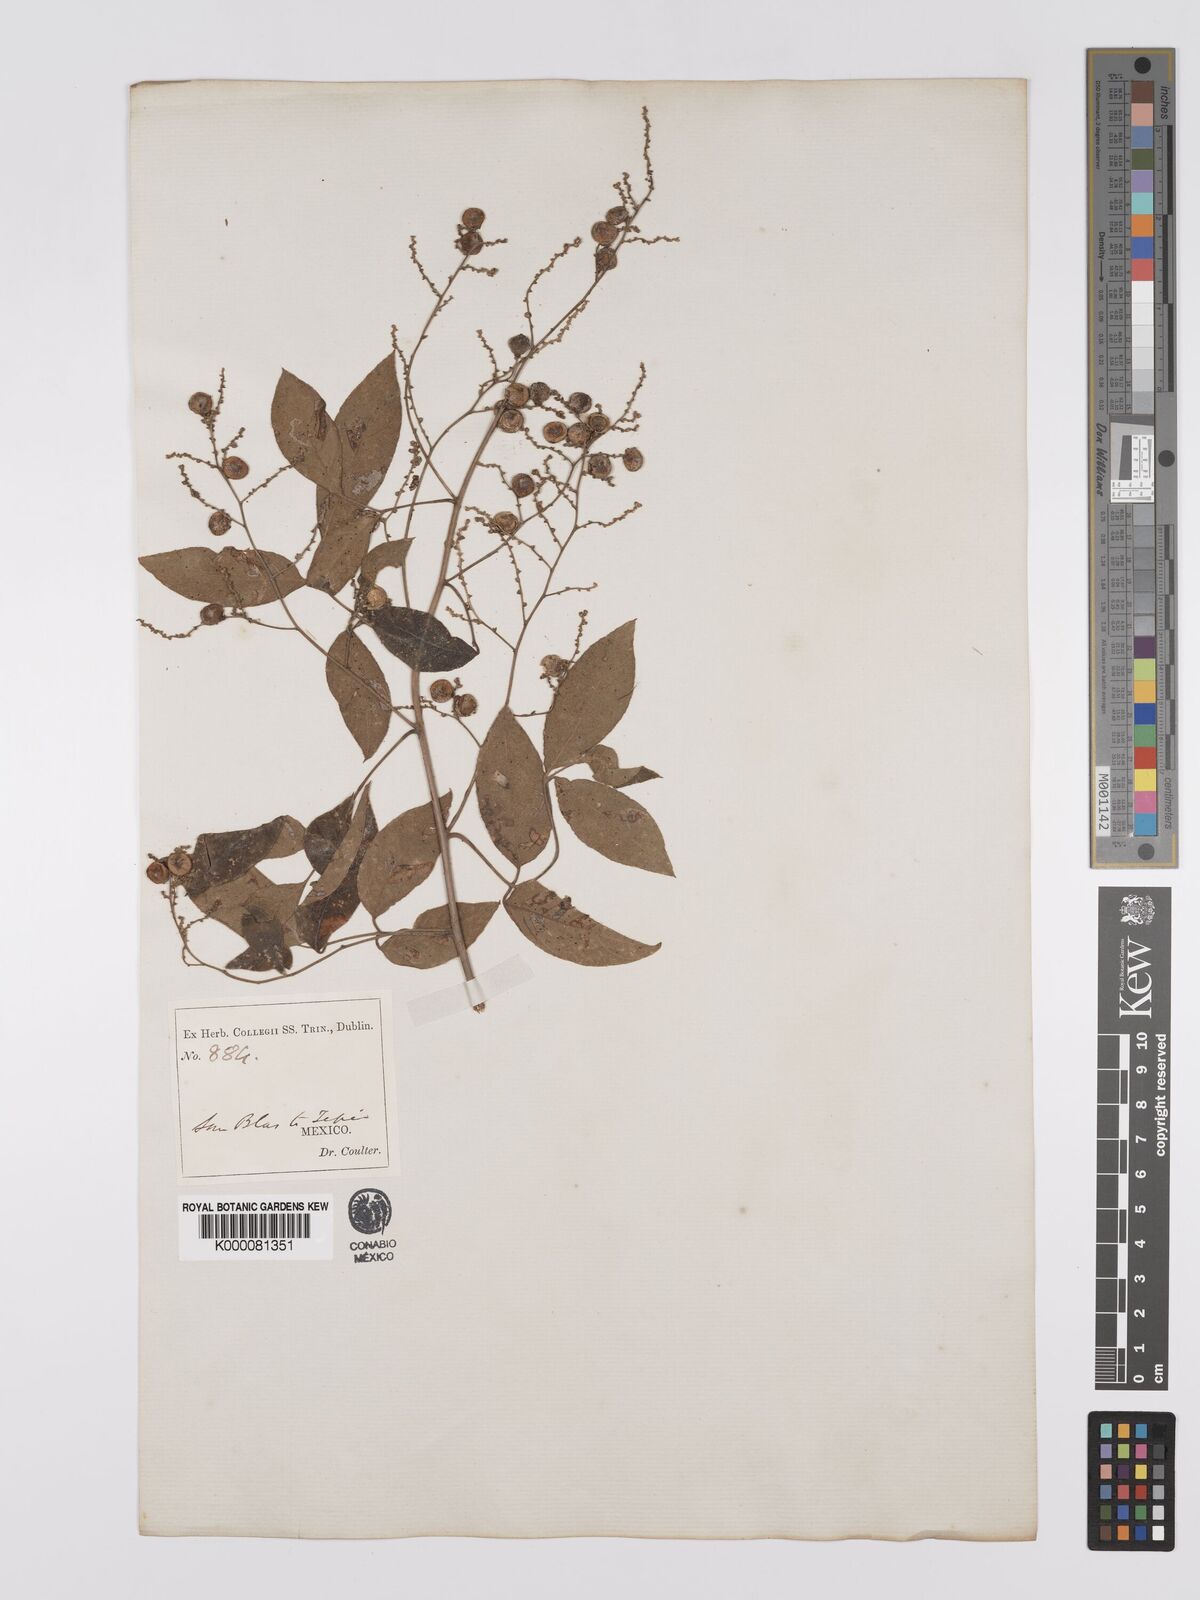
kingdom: Plantae
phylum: Tracheophyta
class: Magnoliopsida
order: Sapindales
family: Anacardiaceae
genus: Rhus
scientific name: Rhus barclayi
